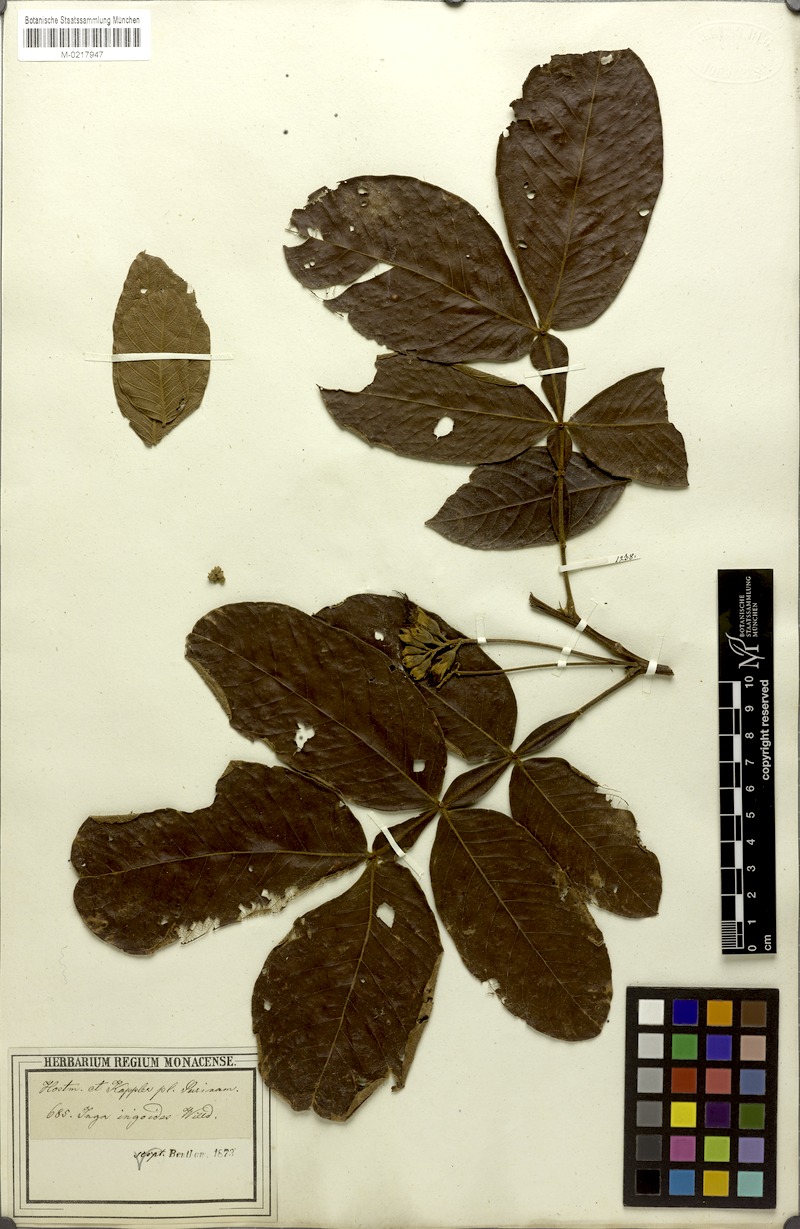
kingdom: Plantae
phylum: Tracheophyta
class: Magnoliopsida
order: Fabales
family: Fabaceae
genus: Inga
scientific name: Inga ingoides
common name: Spanish ash
